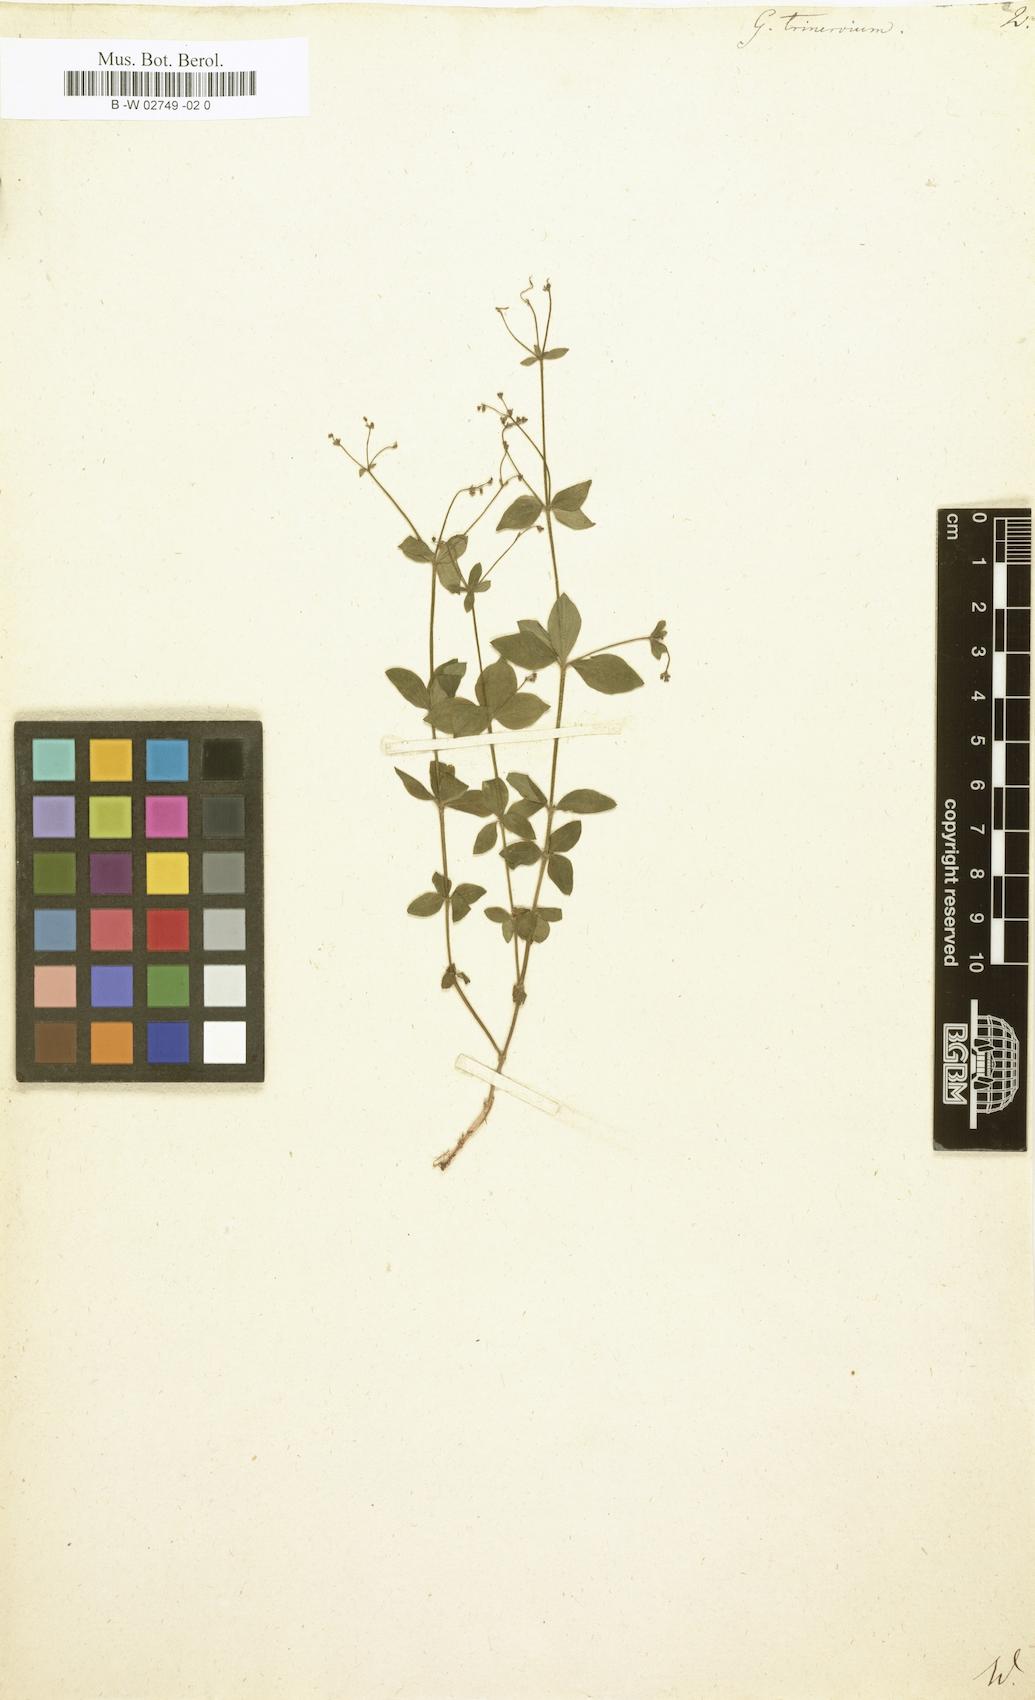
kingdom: Plantae
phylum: Tracheophyta
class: Magnoliopsida
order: Gentianales
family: Rubiaceae
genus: Galium
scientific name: Galium boreale
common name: Northern bedstraw
